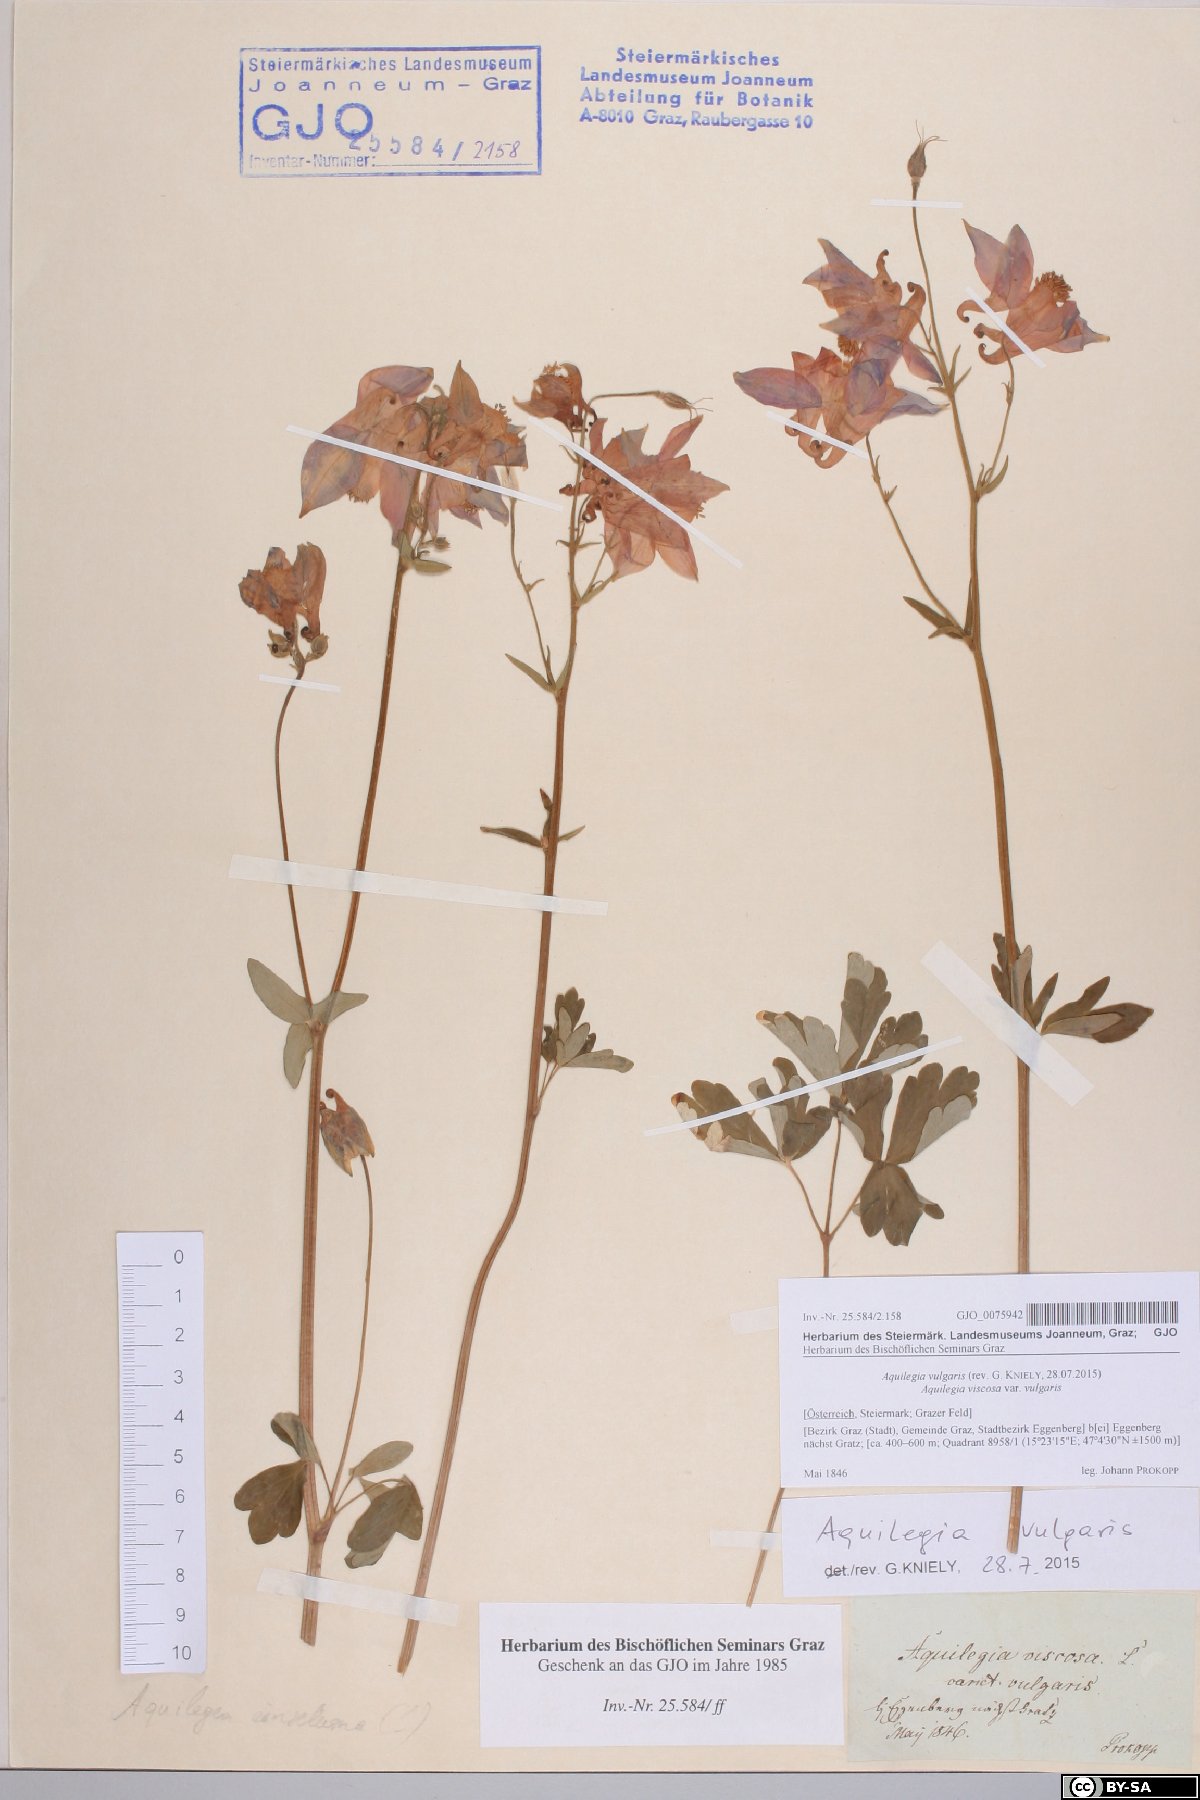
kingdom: Plantae
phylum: Tracheophyta
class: Magnoliopsida
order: Ranunculales
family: Ranunculaceae
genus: Aquilegia
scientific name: Aquilegia vulgaris
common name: Columbine
